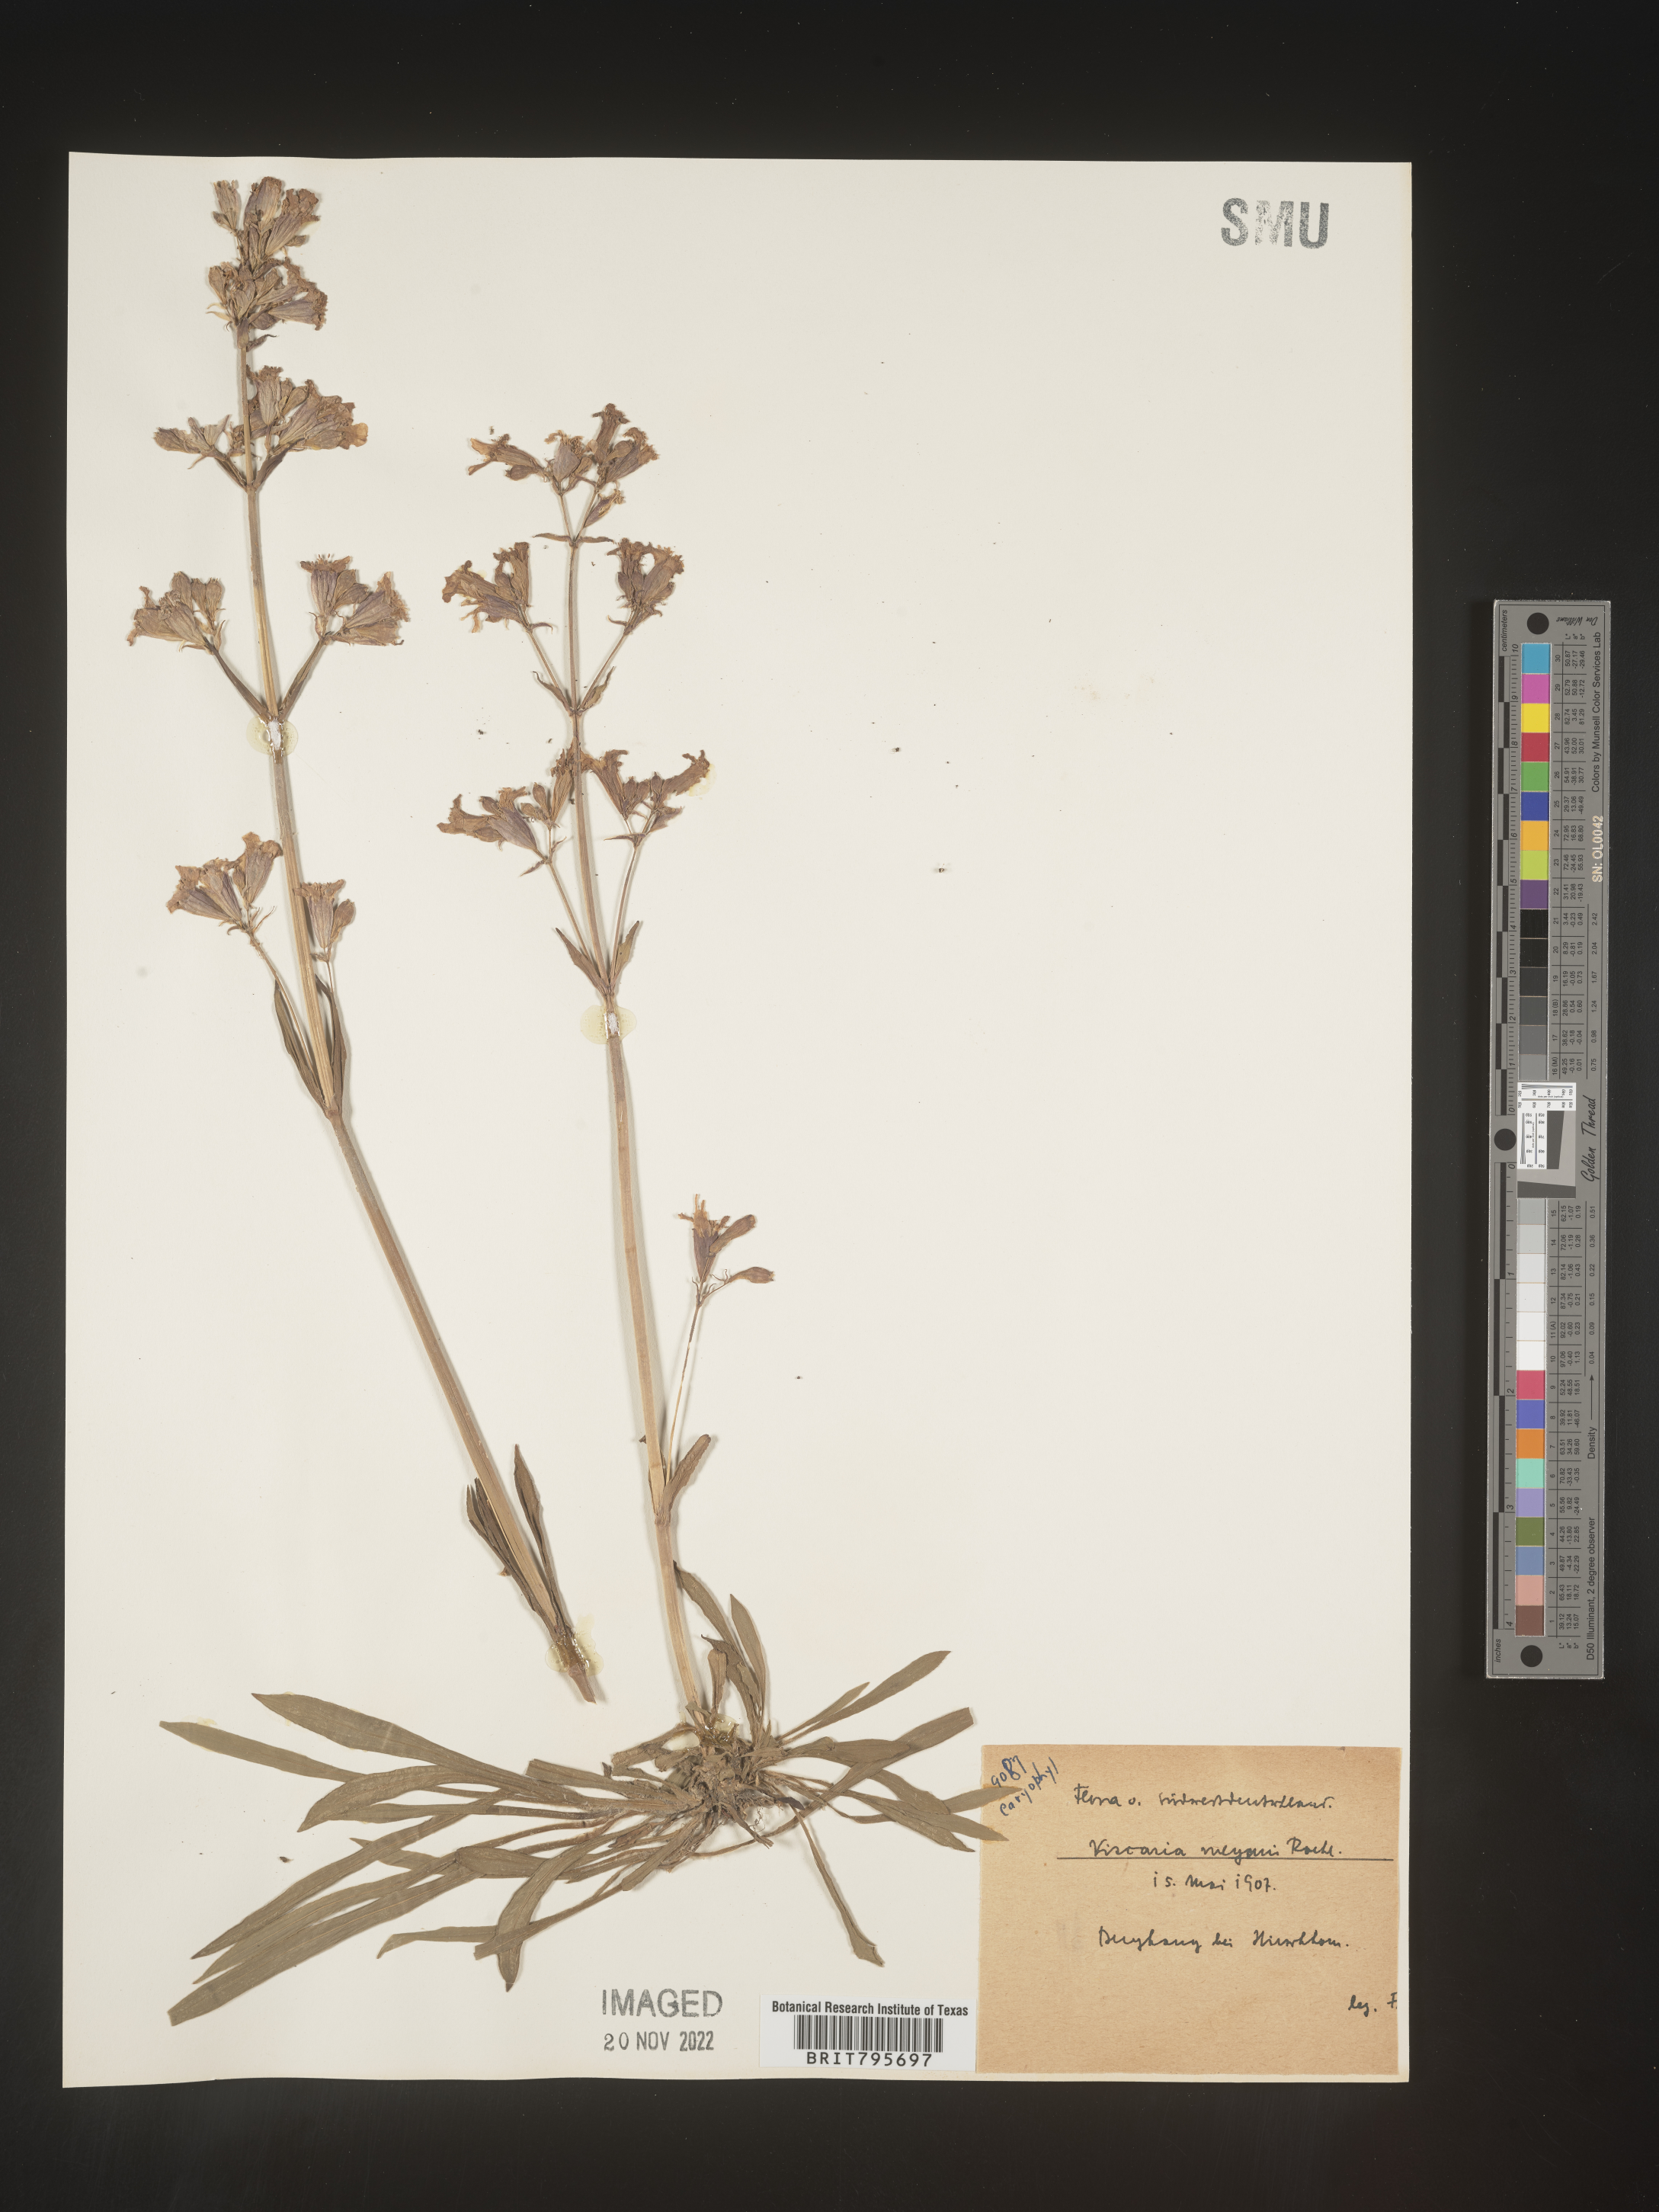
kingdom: Plantae
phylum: Tracheophyta
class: Magnoliopsida
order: Caryophyllales
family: Caryophyllaceae
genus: Viscaria
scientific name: Viscaria
